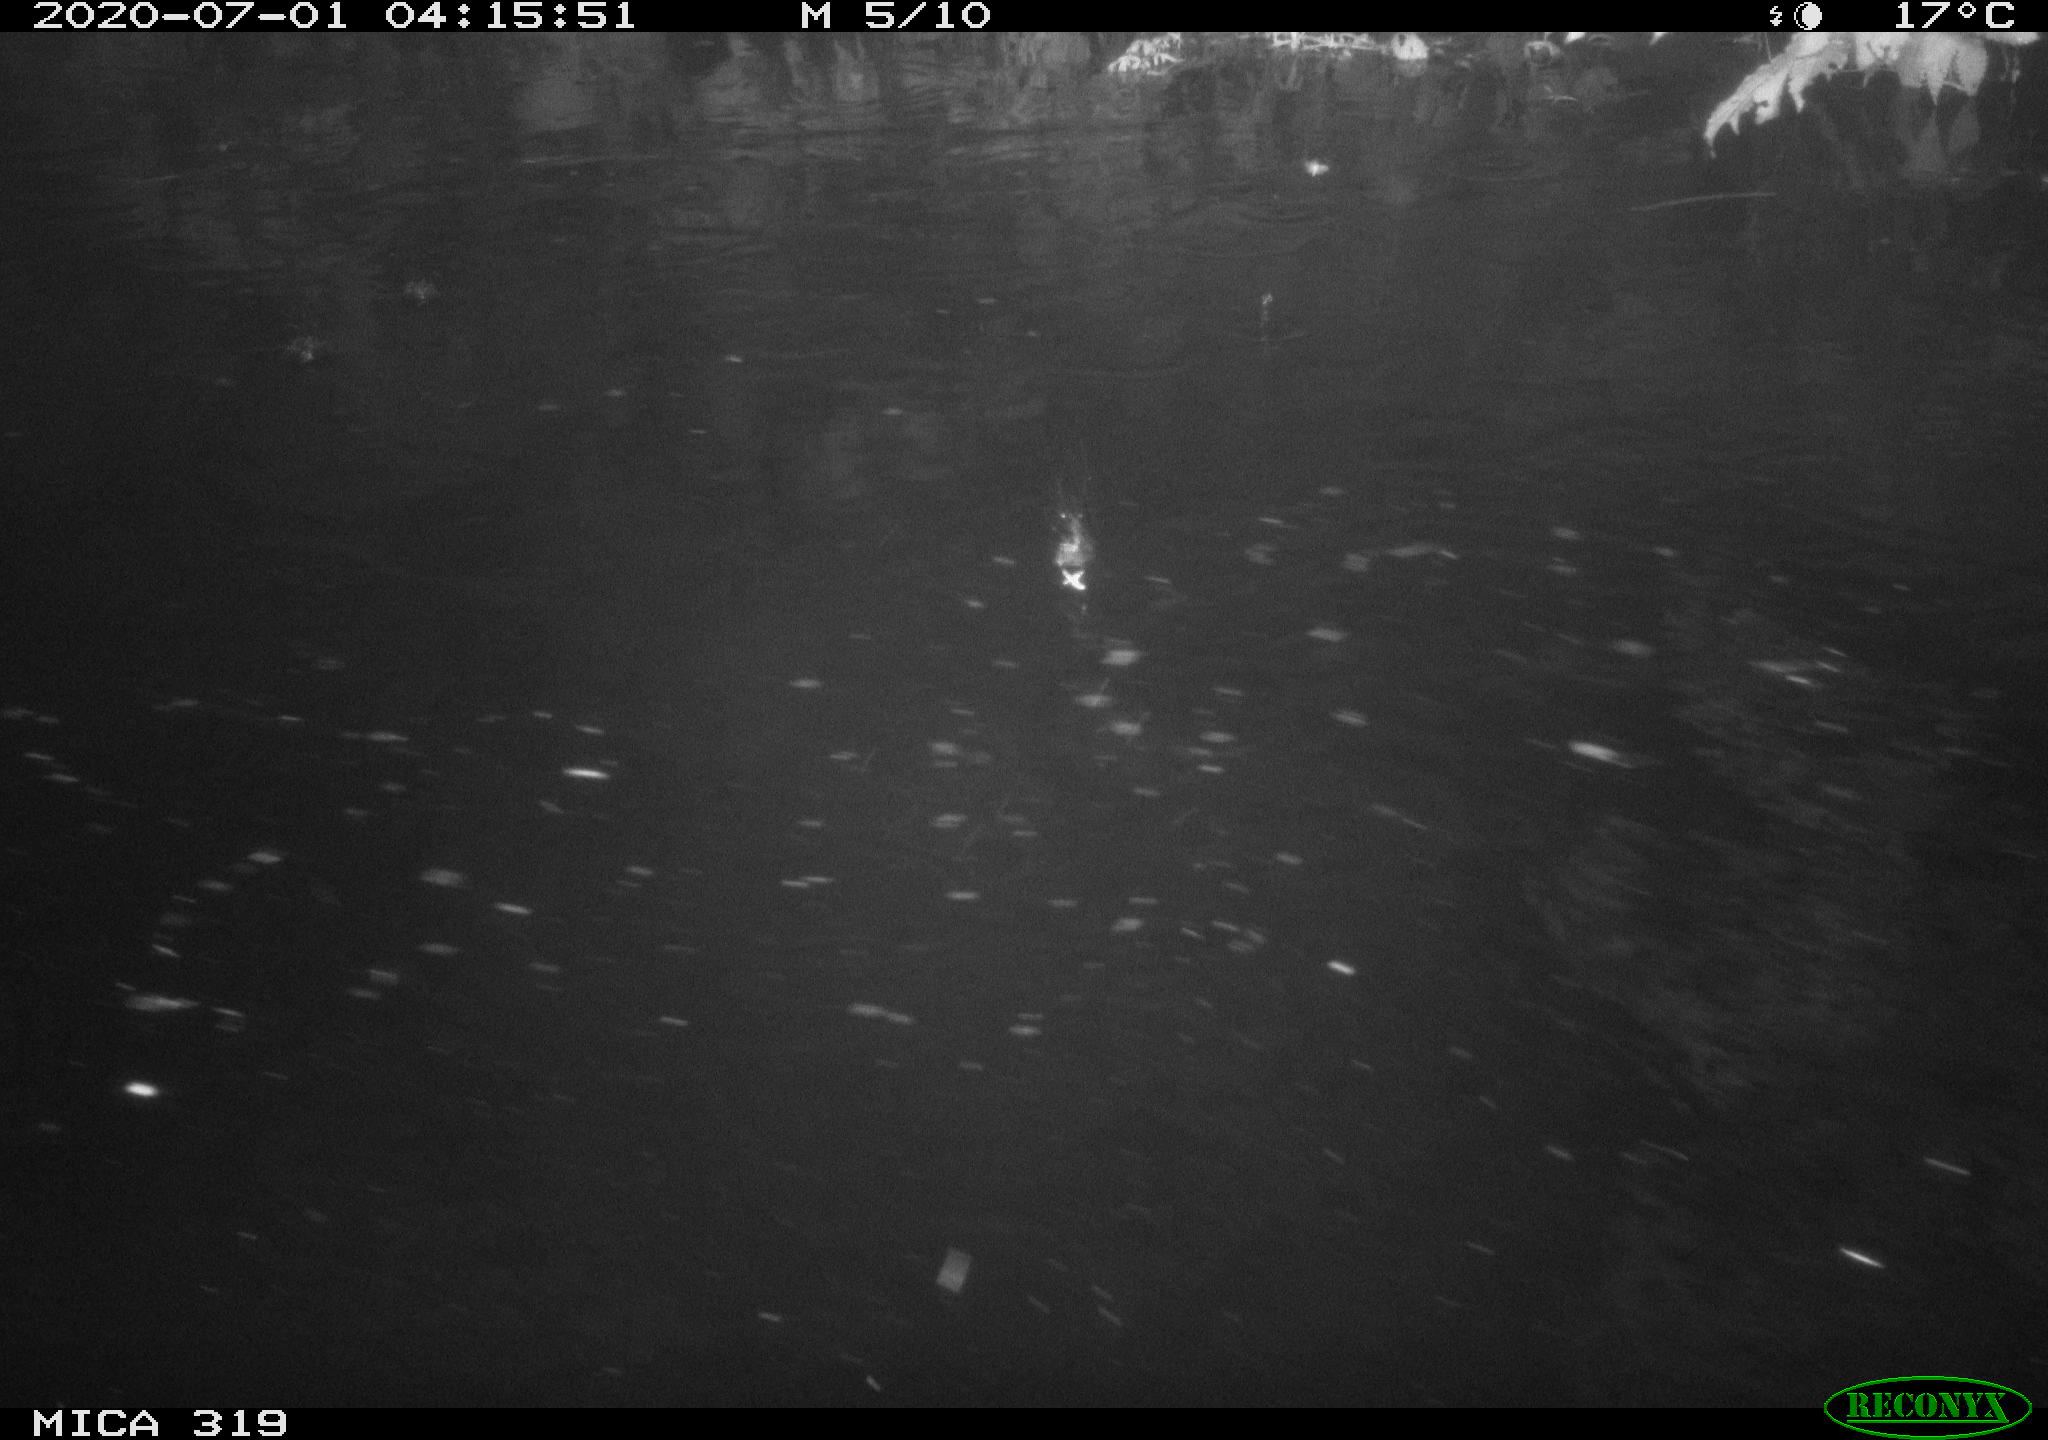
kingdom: Animalia
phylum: Chordata
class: Aves
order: Anseriformes
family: Anatidae
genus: Anas
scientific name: Anas platyrhynchos
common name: Mallard
